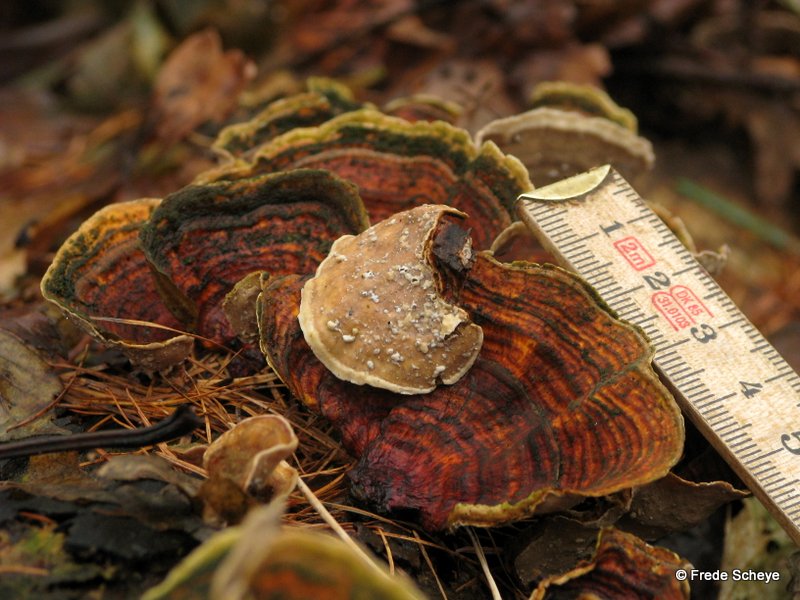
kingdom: Fungi
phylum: Basidiomycota
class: Agaricomycetes
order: Russulales
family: Stereaceae
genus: Stereum
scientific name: Stereum subtomentosum
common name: smuk lædersvamp
